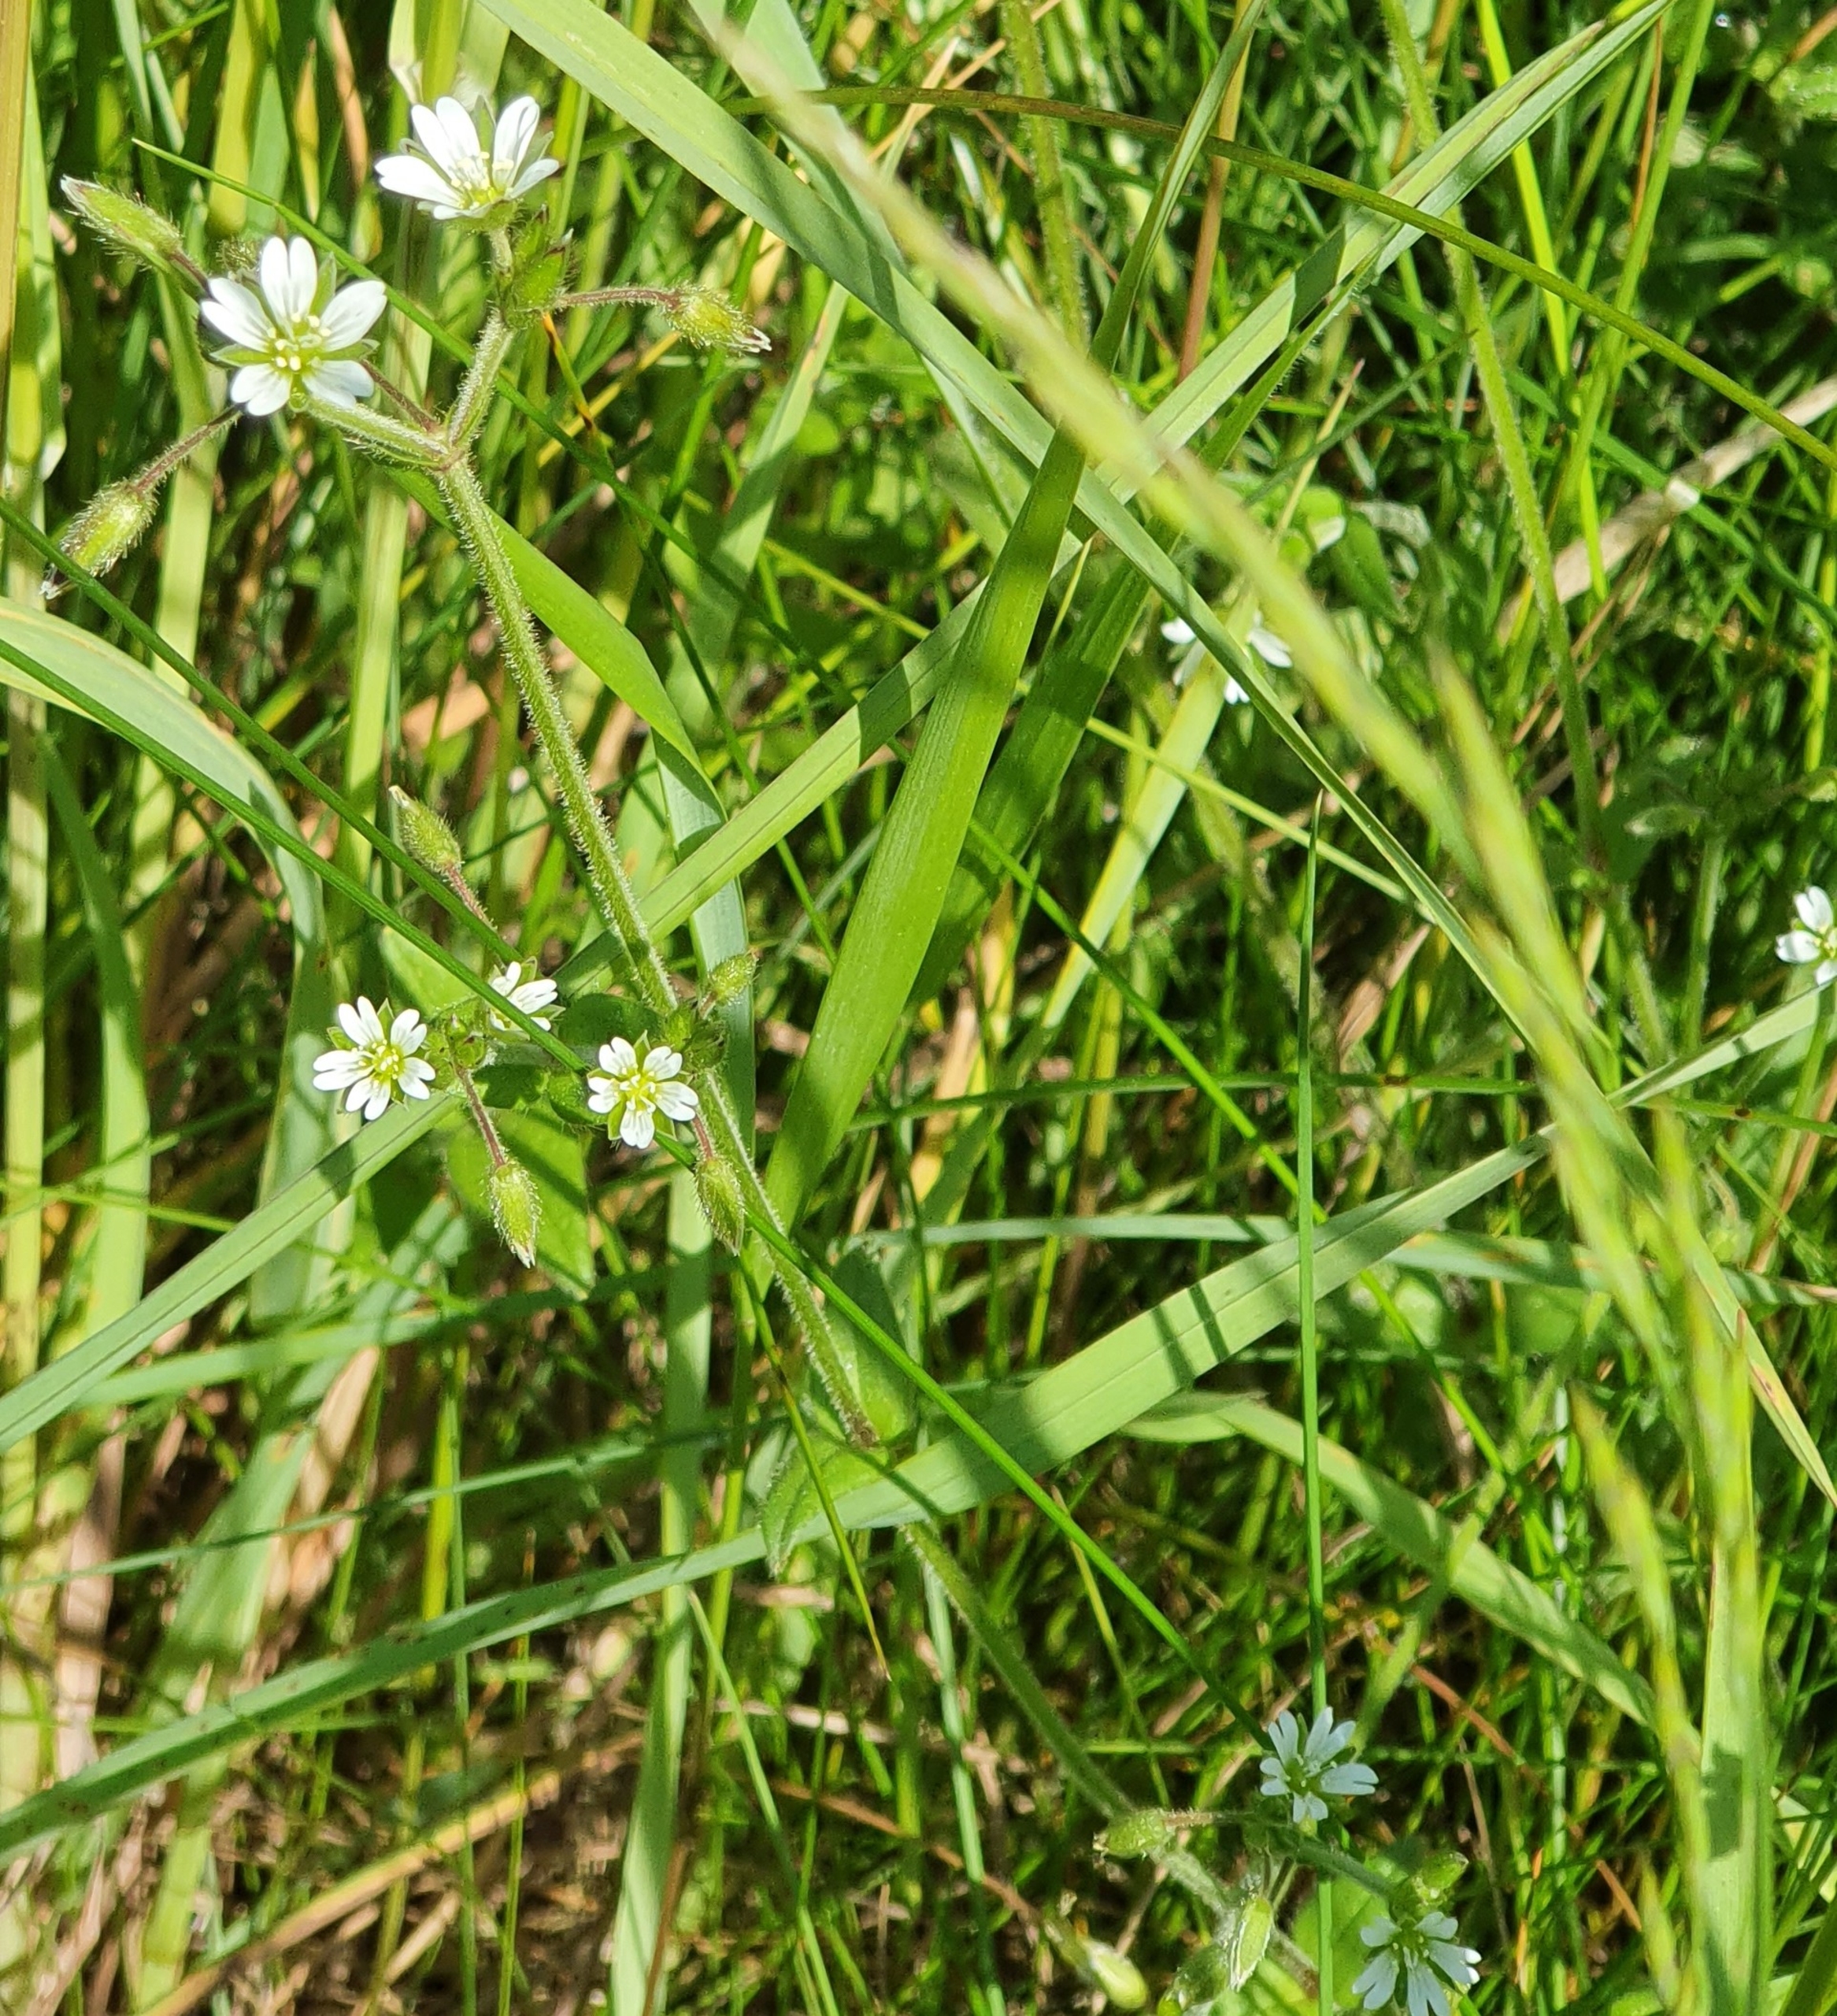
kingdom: Plantae
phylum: Tracheophyta
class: Magnoliopsida
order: Caryophyllales
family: Caryophyllaceae
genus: Cerastium
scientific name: Cerastium fontanum
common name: Almindelig hønsetarm
